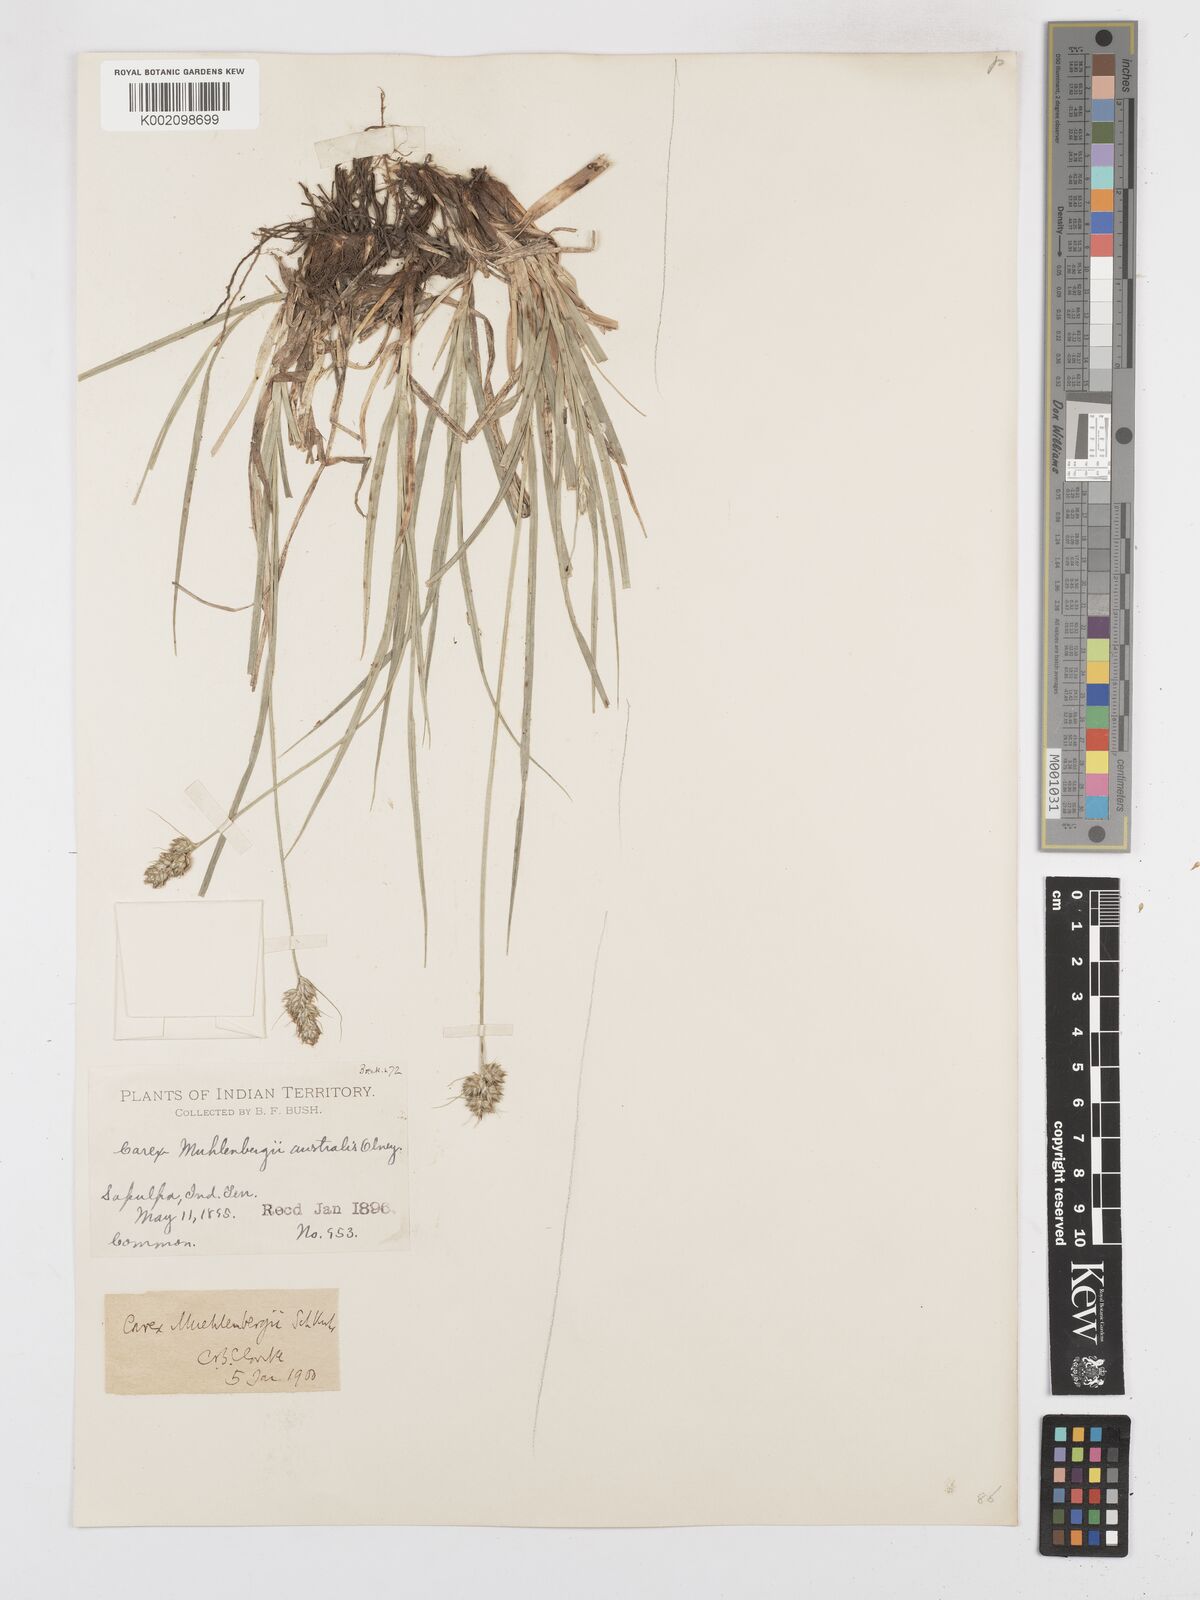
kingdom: Plantae
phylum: Tracheophyta
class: Liliopsida
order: Poales
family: Cyperaceae
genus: Carex
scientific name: Carex austrina
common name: Southern sedge
